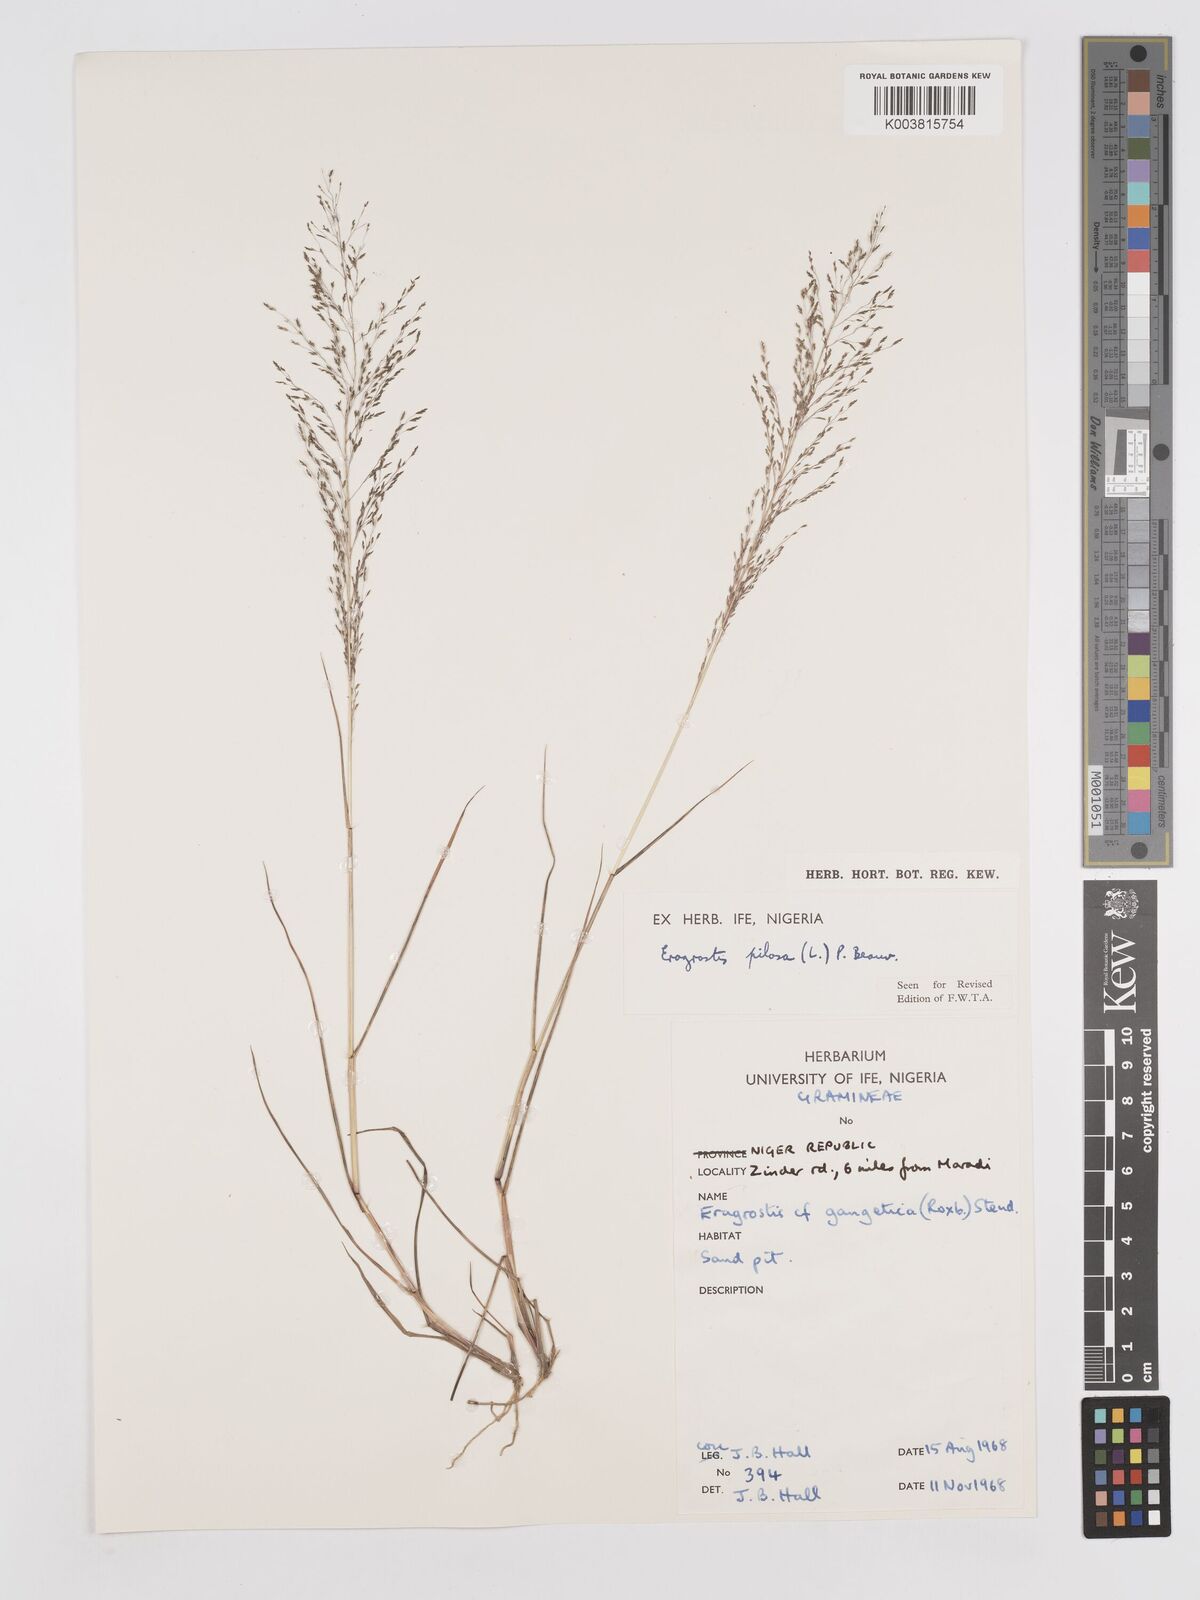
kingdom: Plantae
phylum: Tracheophyta
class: Liliopsida
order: Poales
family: Poaceae
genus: Eragrostis
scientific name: Eragrostis pilosa
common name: Indian lovegrass
